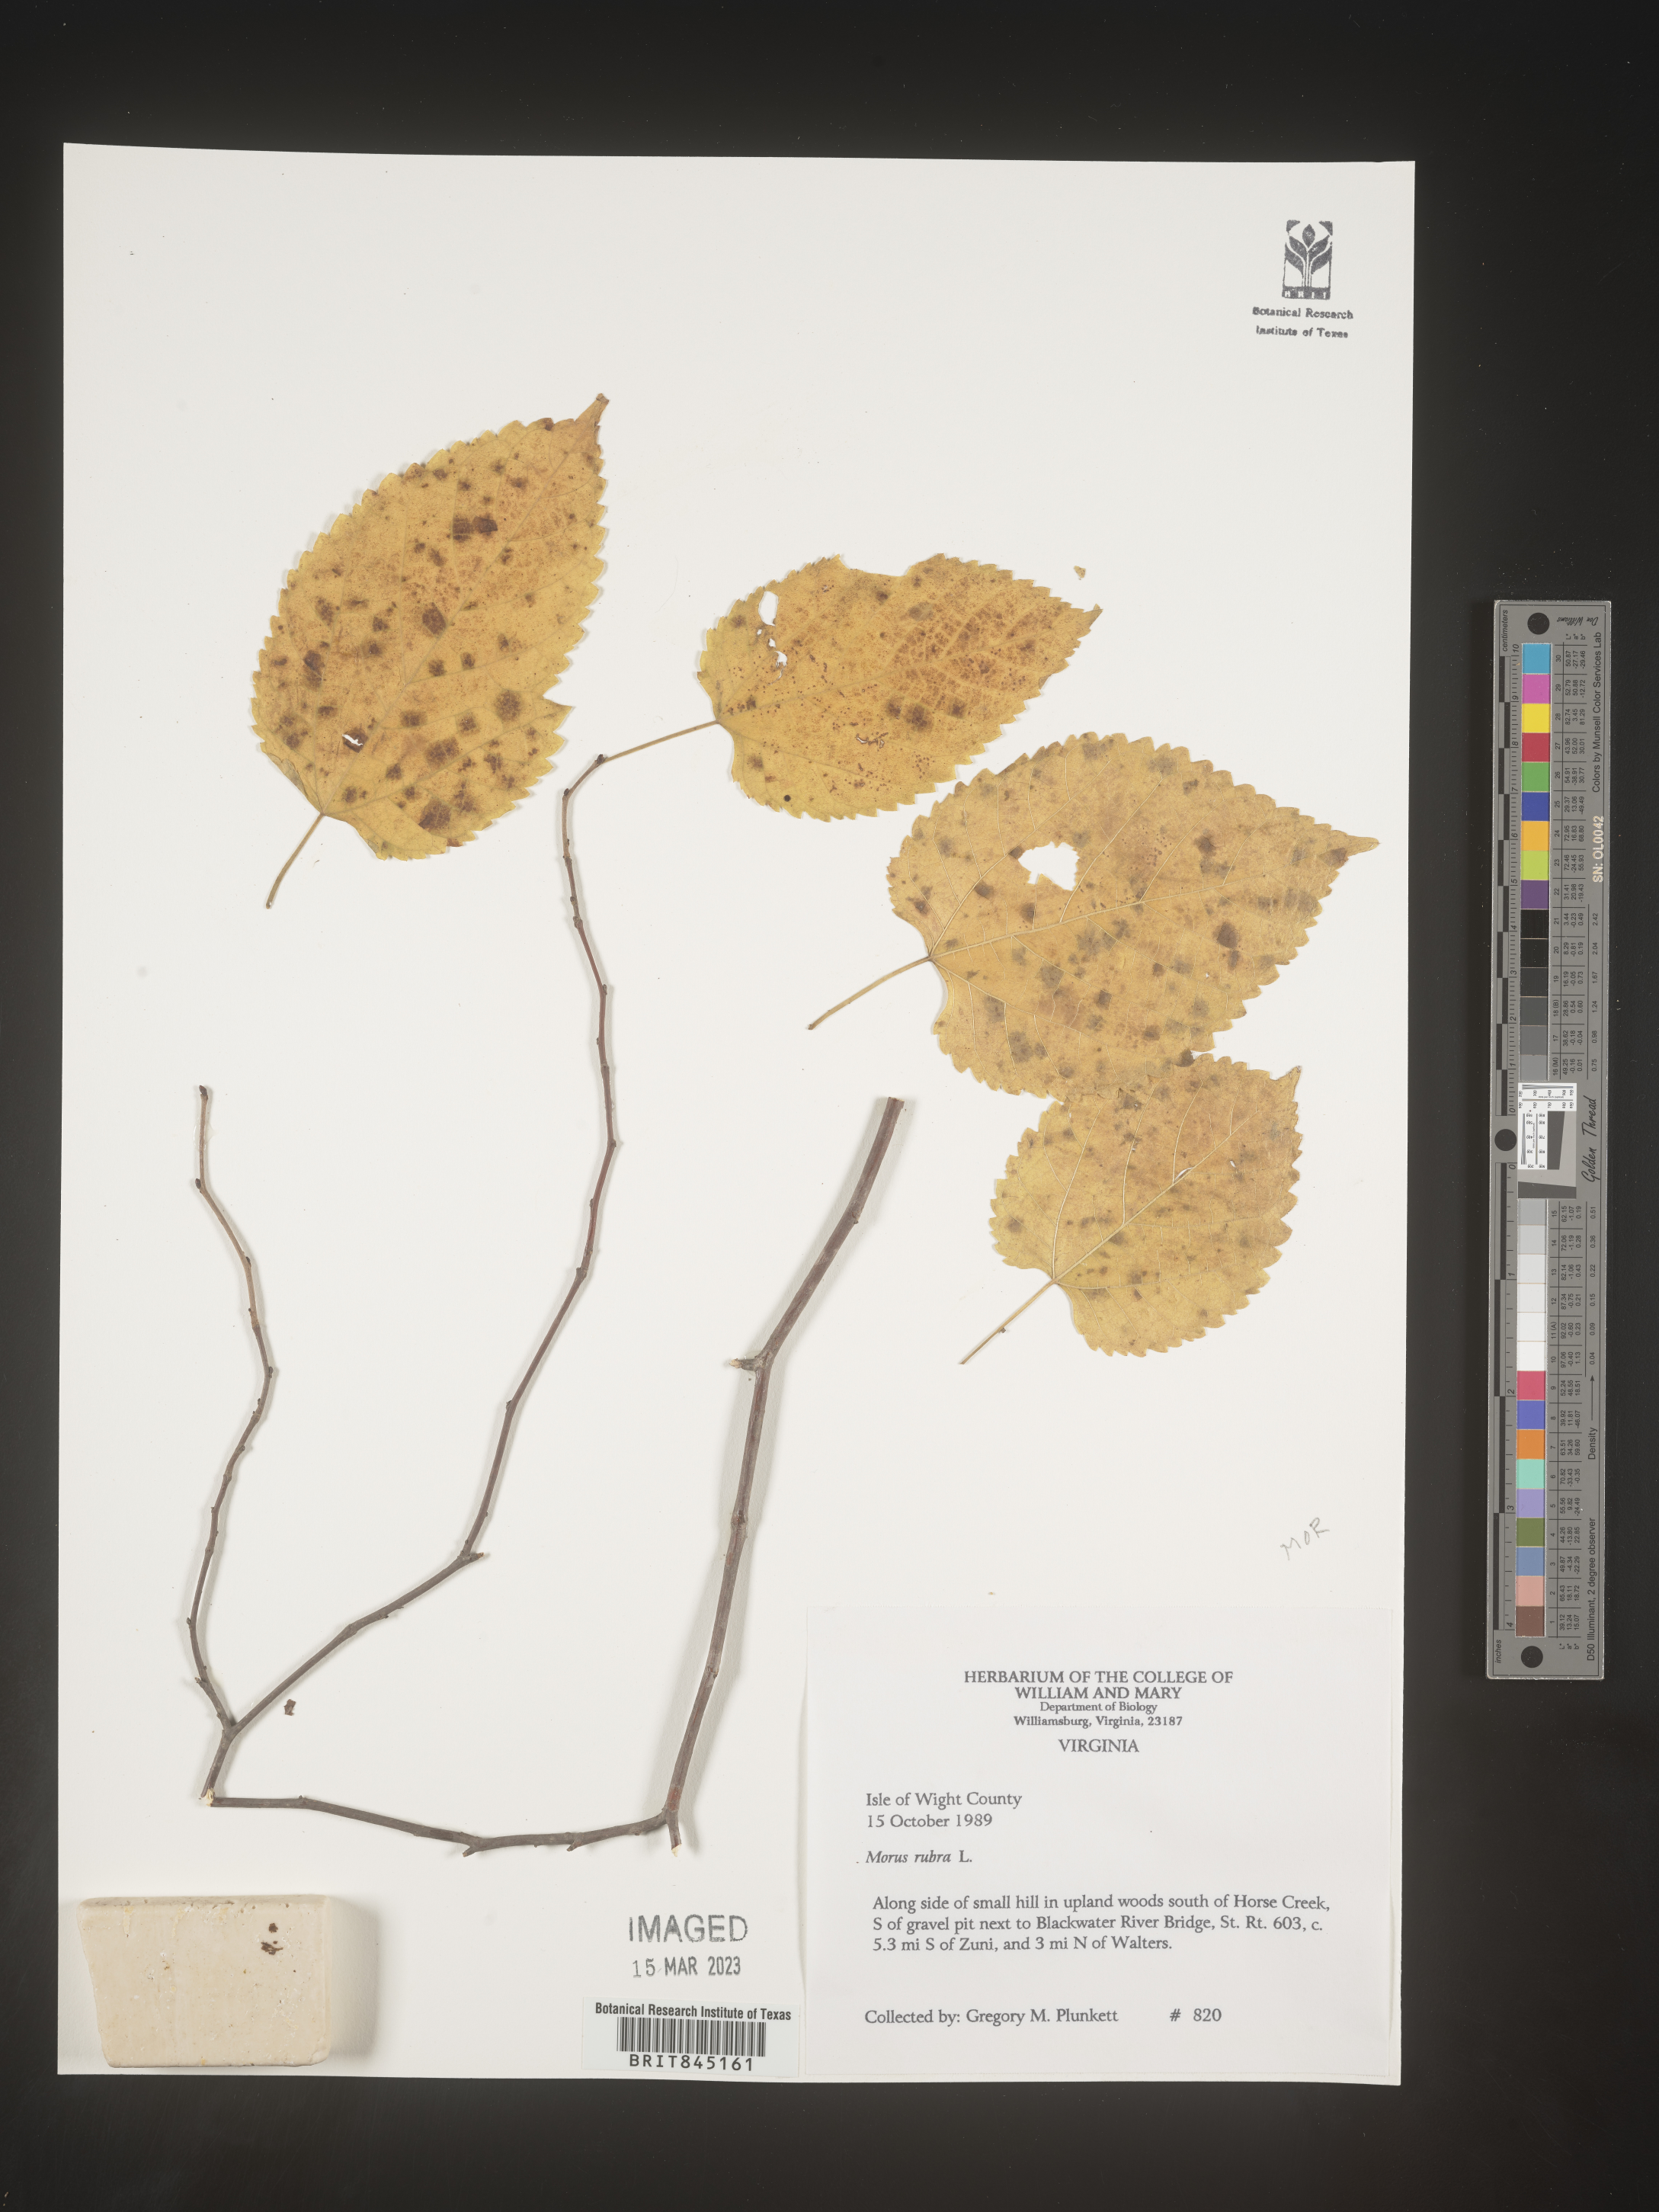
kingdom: Plantae
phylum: Tracheophyta
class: Magnoliopsida
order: Rosales
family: Moraceae
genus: Morus
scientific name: Morus rubra
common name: Red mulberry
